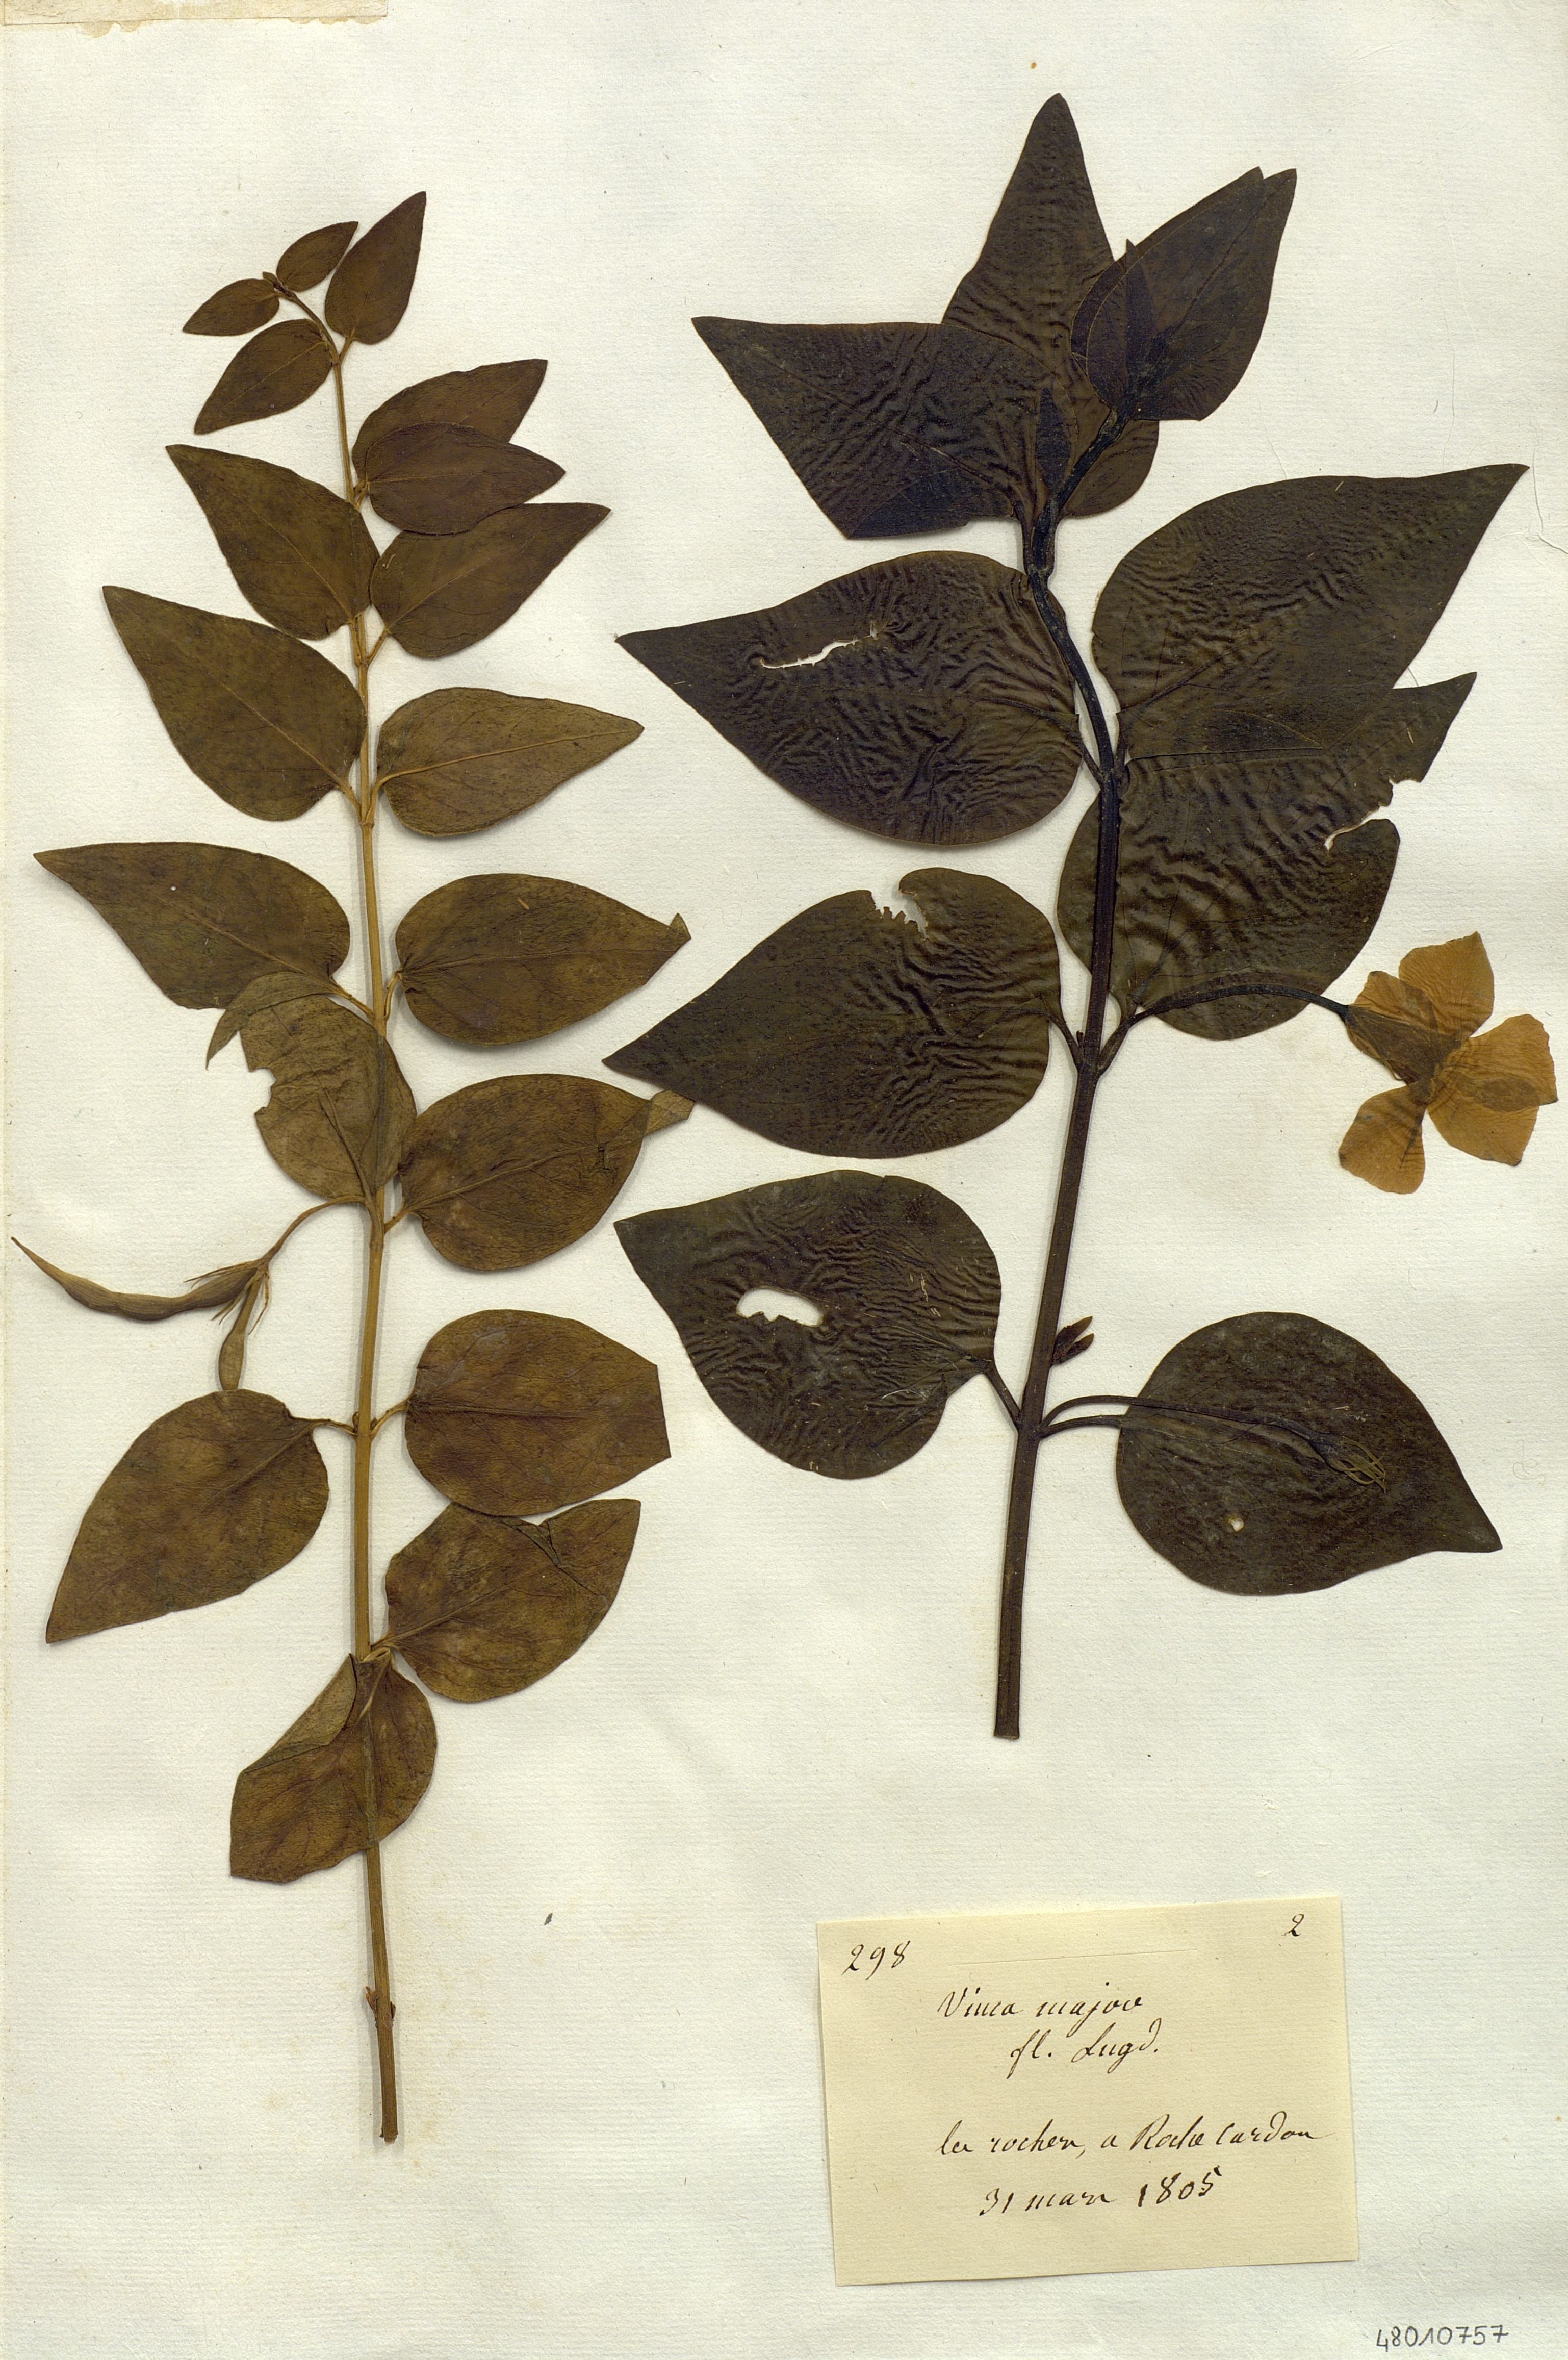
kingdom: Plantae
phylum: Tracheophyta
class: Magnoliopsida
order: Gentianales
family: Apocynaceae
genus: Vinca
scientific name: Vinca major
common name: Greater periwinkle
